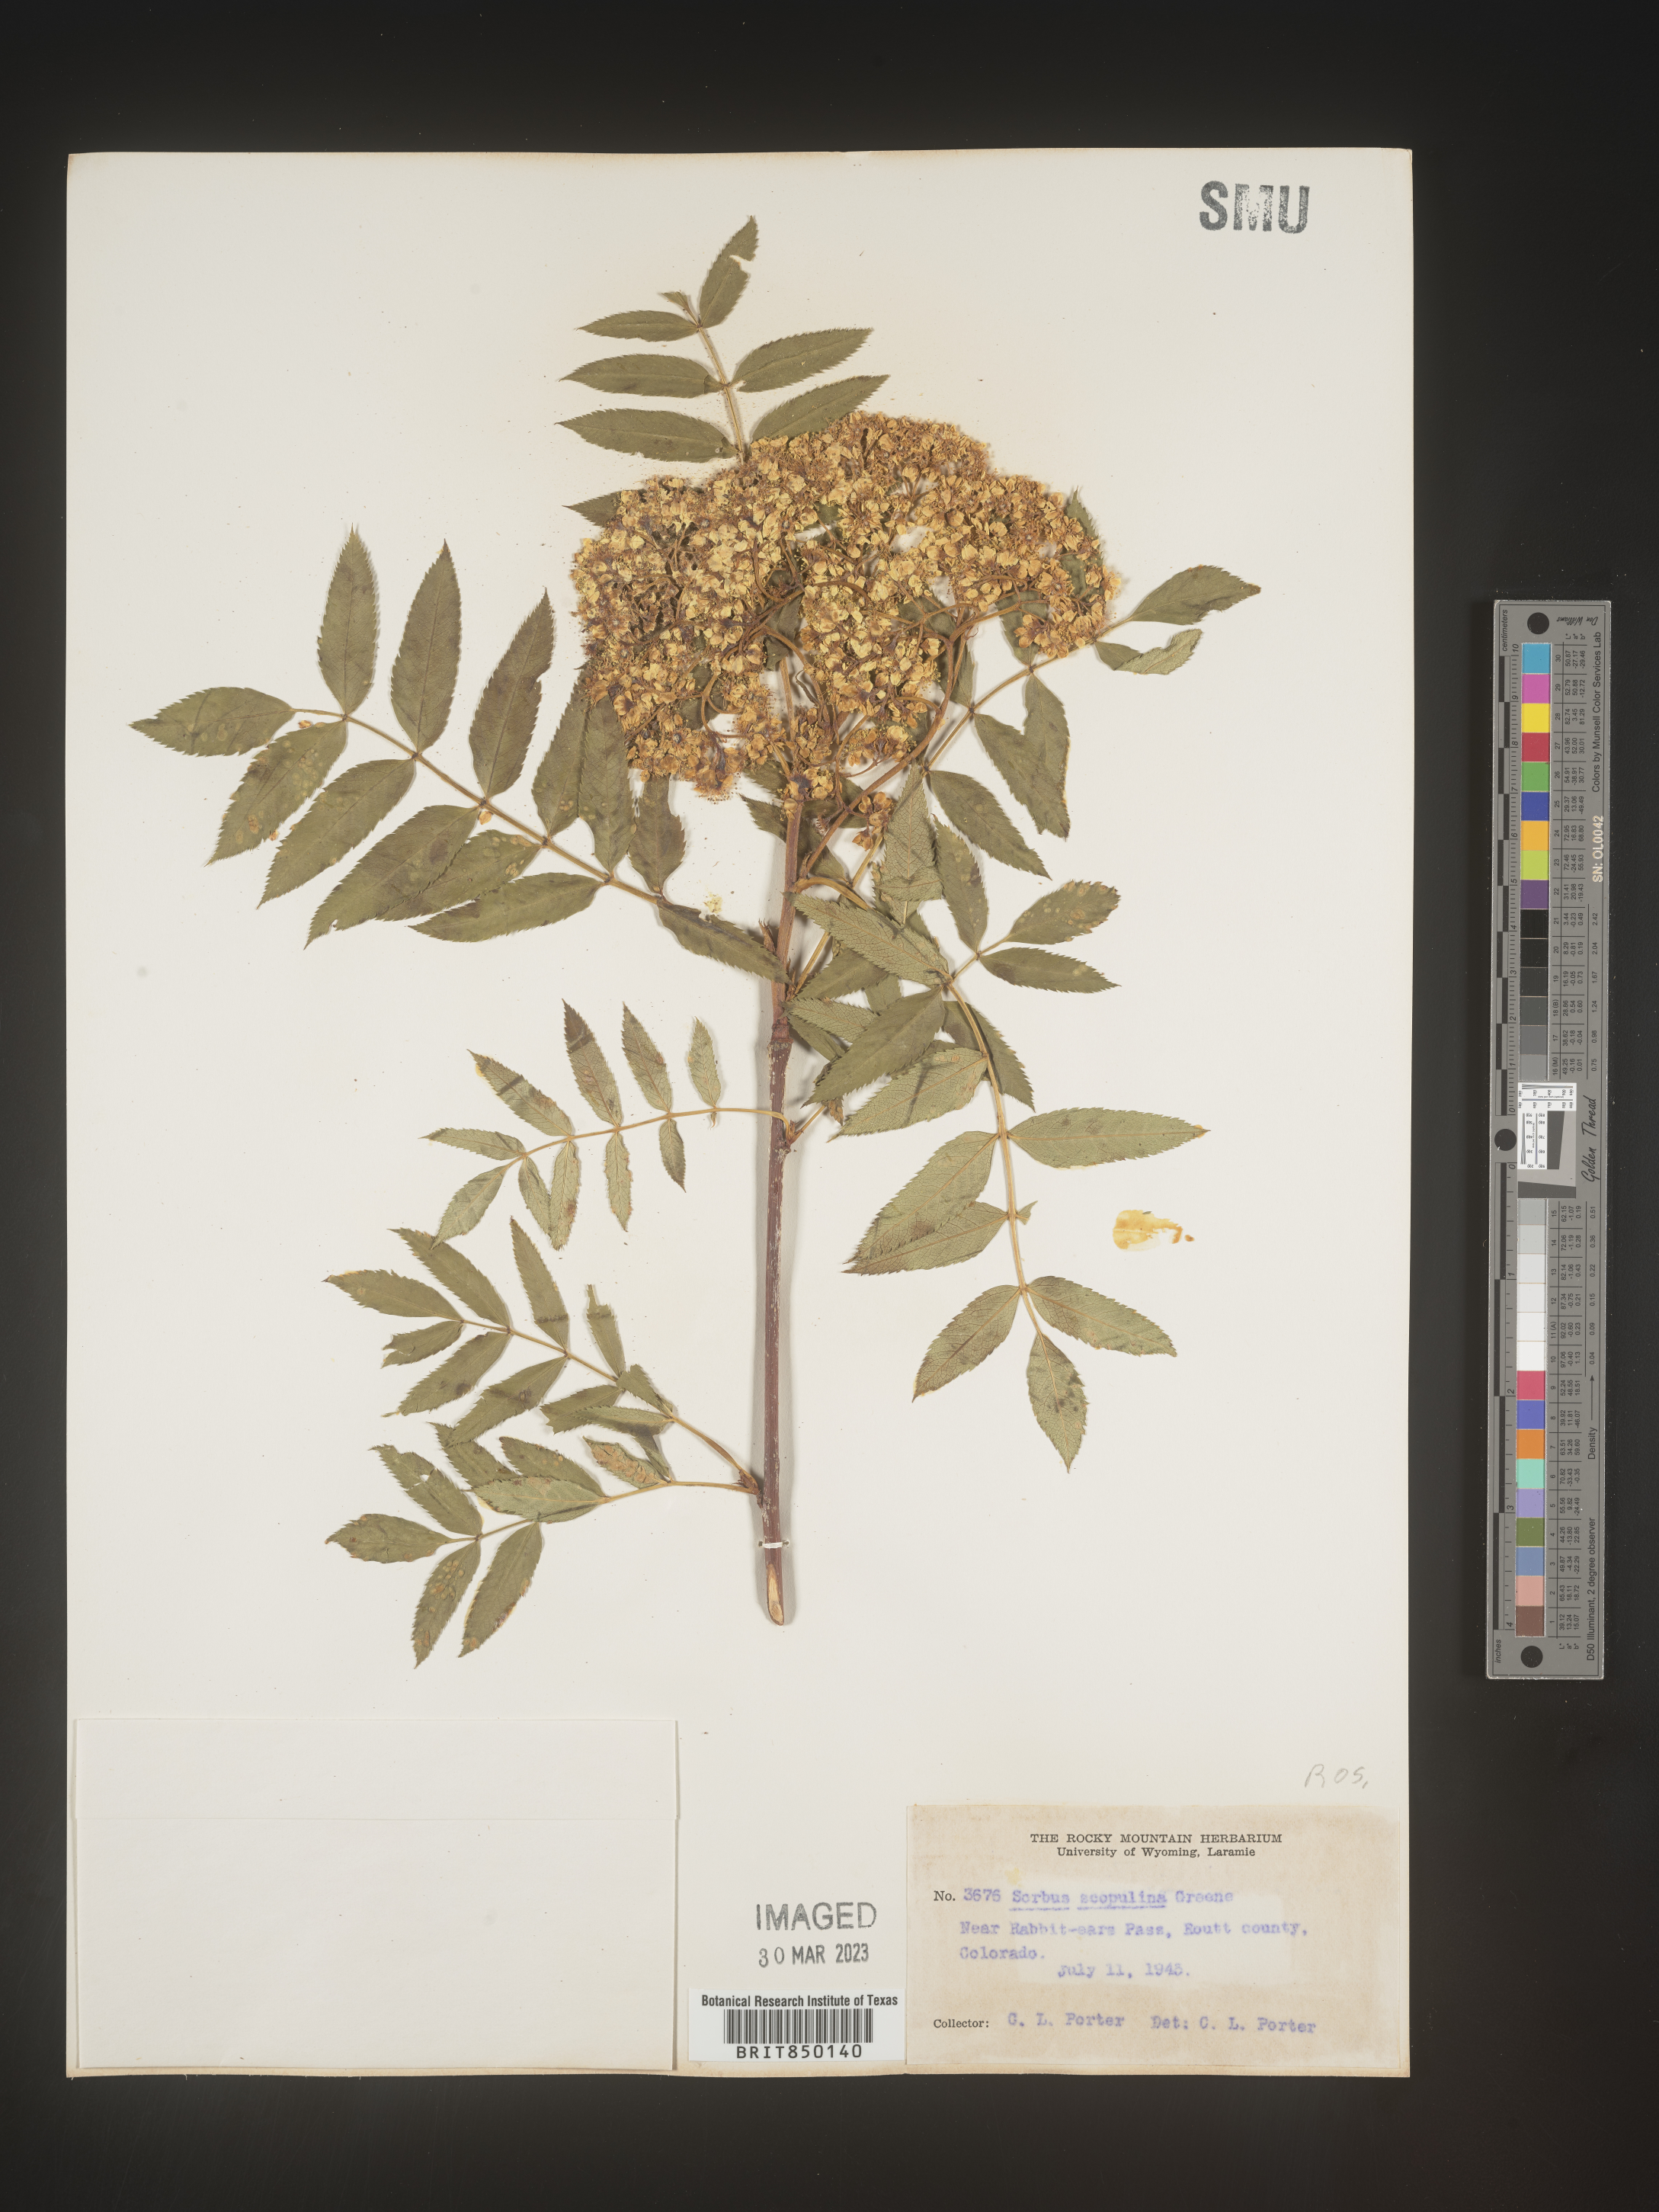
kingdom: Plantae
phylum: Tracheophyta
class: Magnoliopsida
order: Rosales
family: Rosaceae
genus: Sorbus
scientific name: Sorbus scopulina
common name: Greene's mountain-ash
